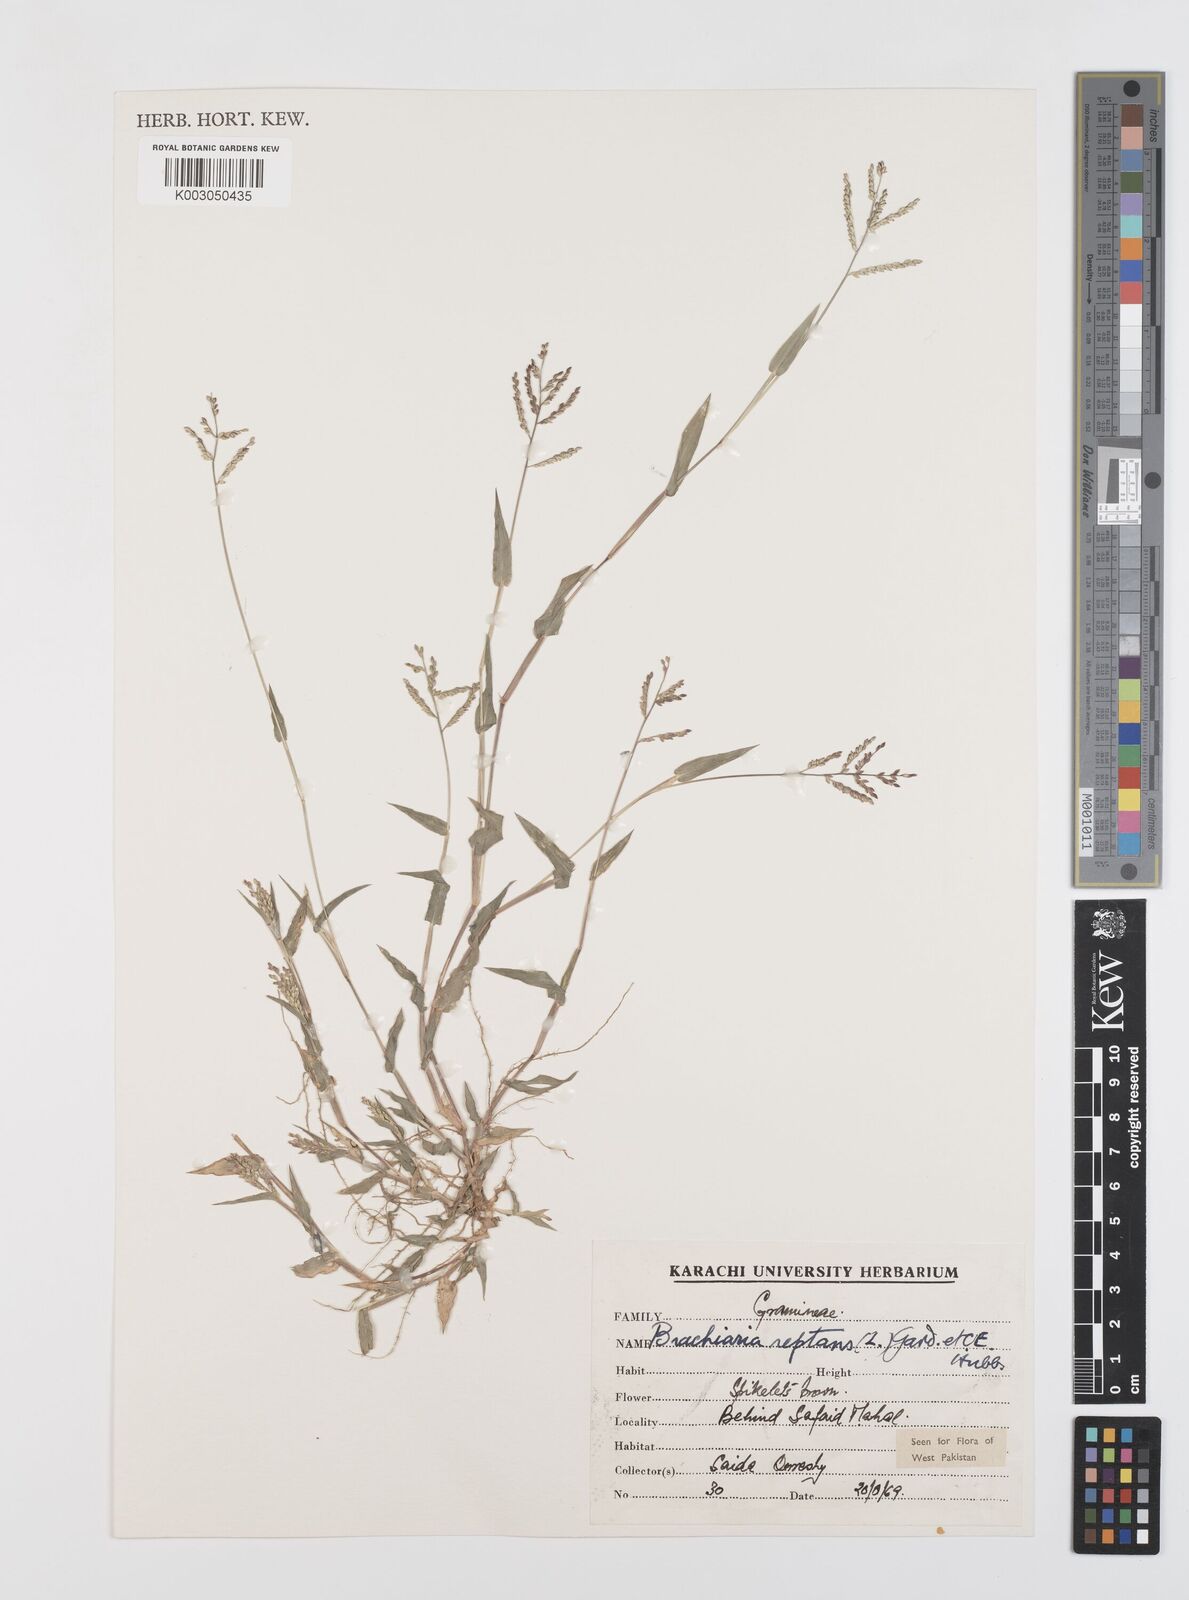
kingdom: Plantae
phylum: Tracheophyta
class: Liliopsida
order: Poales
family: Poaceae
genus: Urochloa
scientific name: Urochloa reptans
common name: Sprawling signalgrass
